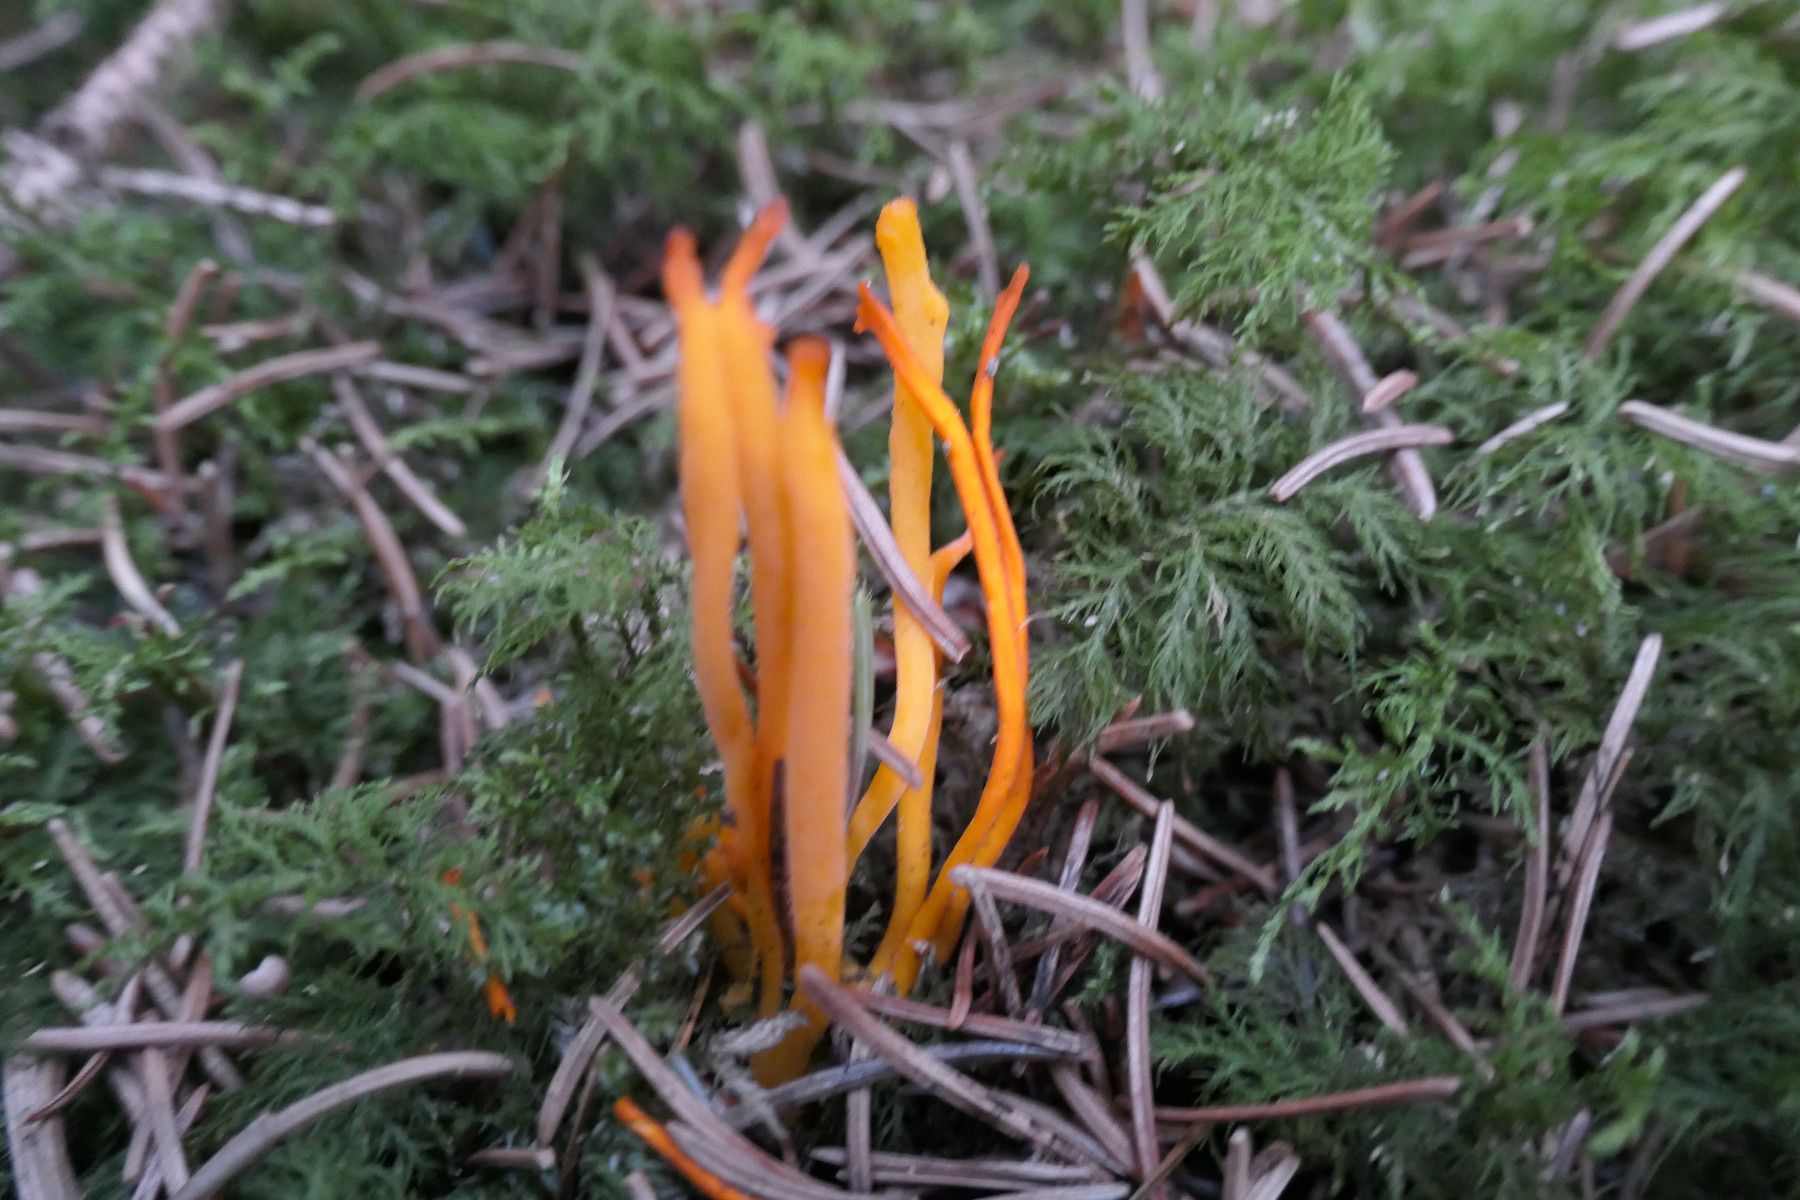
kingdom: Fungi
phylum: Basidiomycota
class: Dacrymycetes
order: Dacrymycetales
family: Dacrymycetaceae
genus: Calocera
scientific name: Calocera viscosa
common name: almindelig guldgaffel
